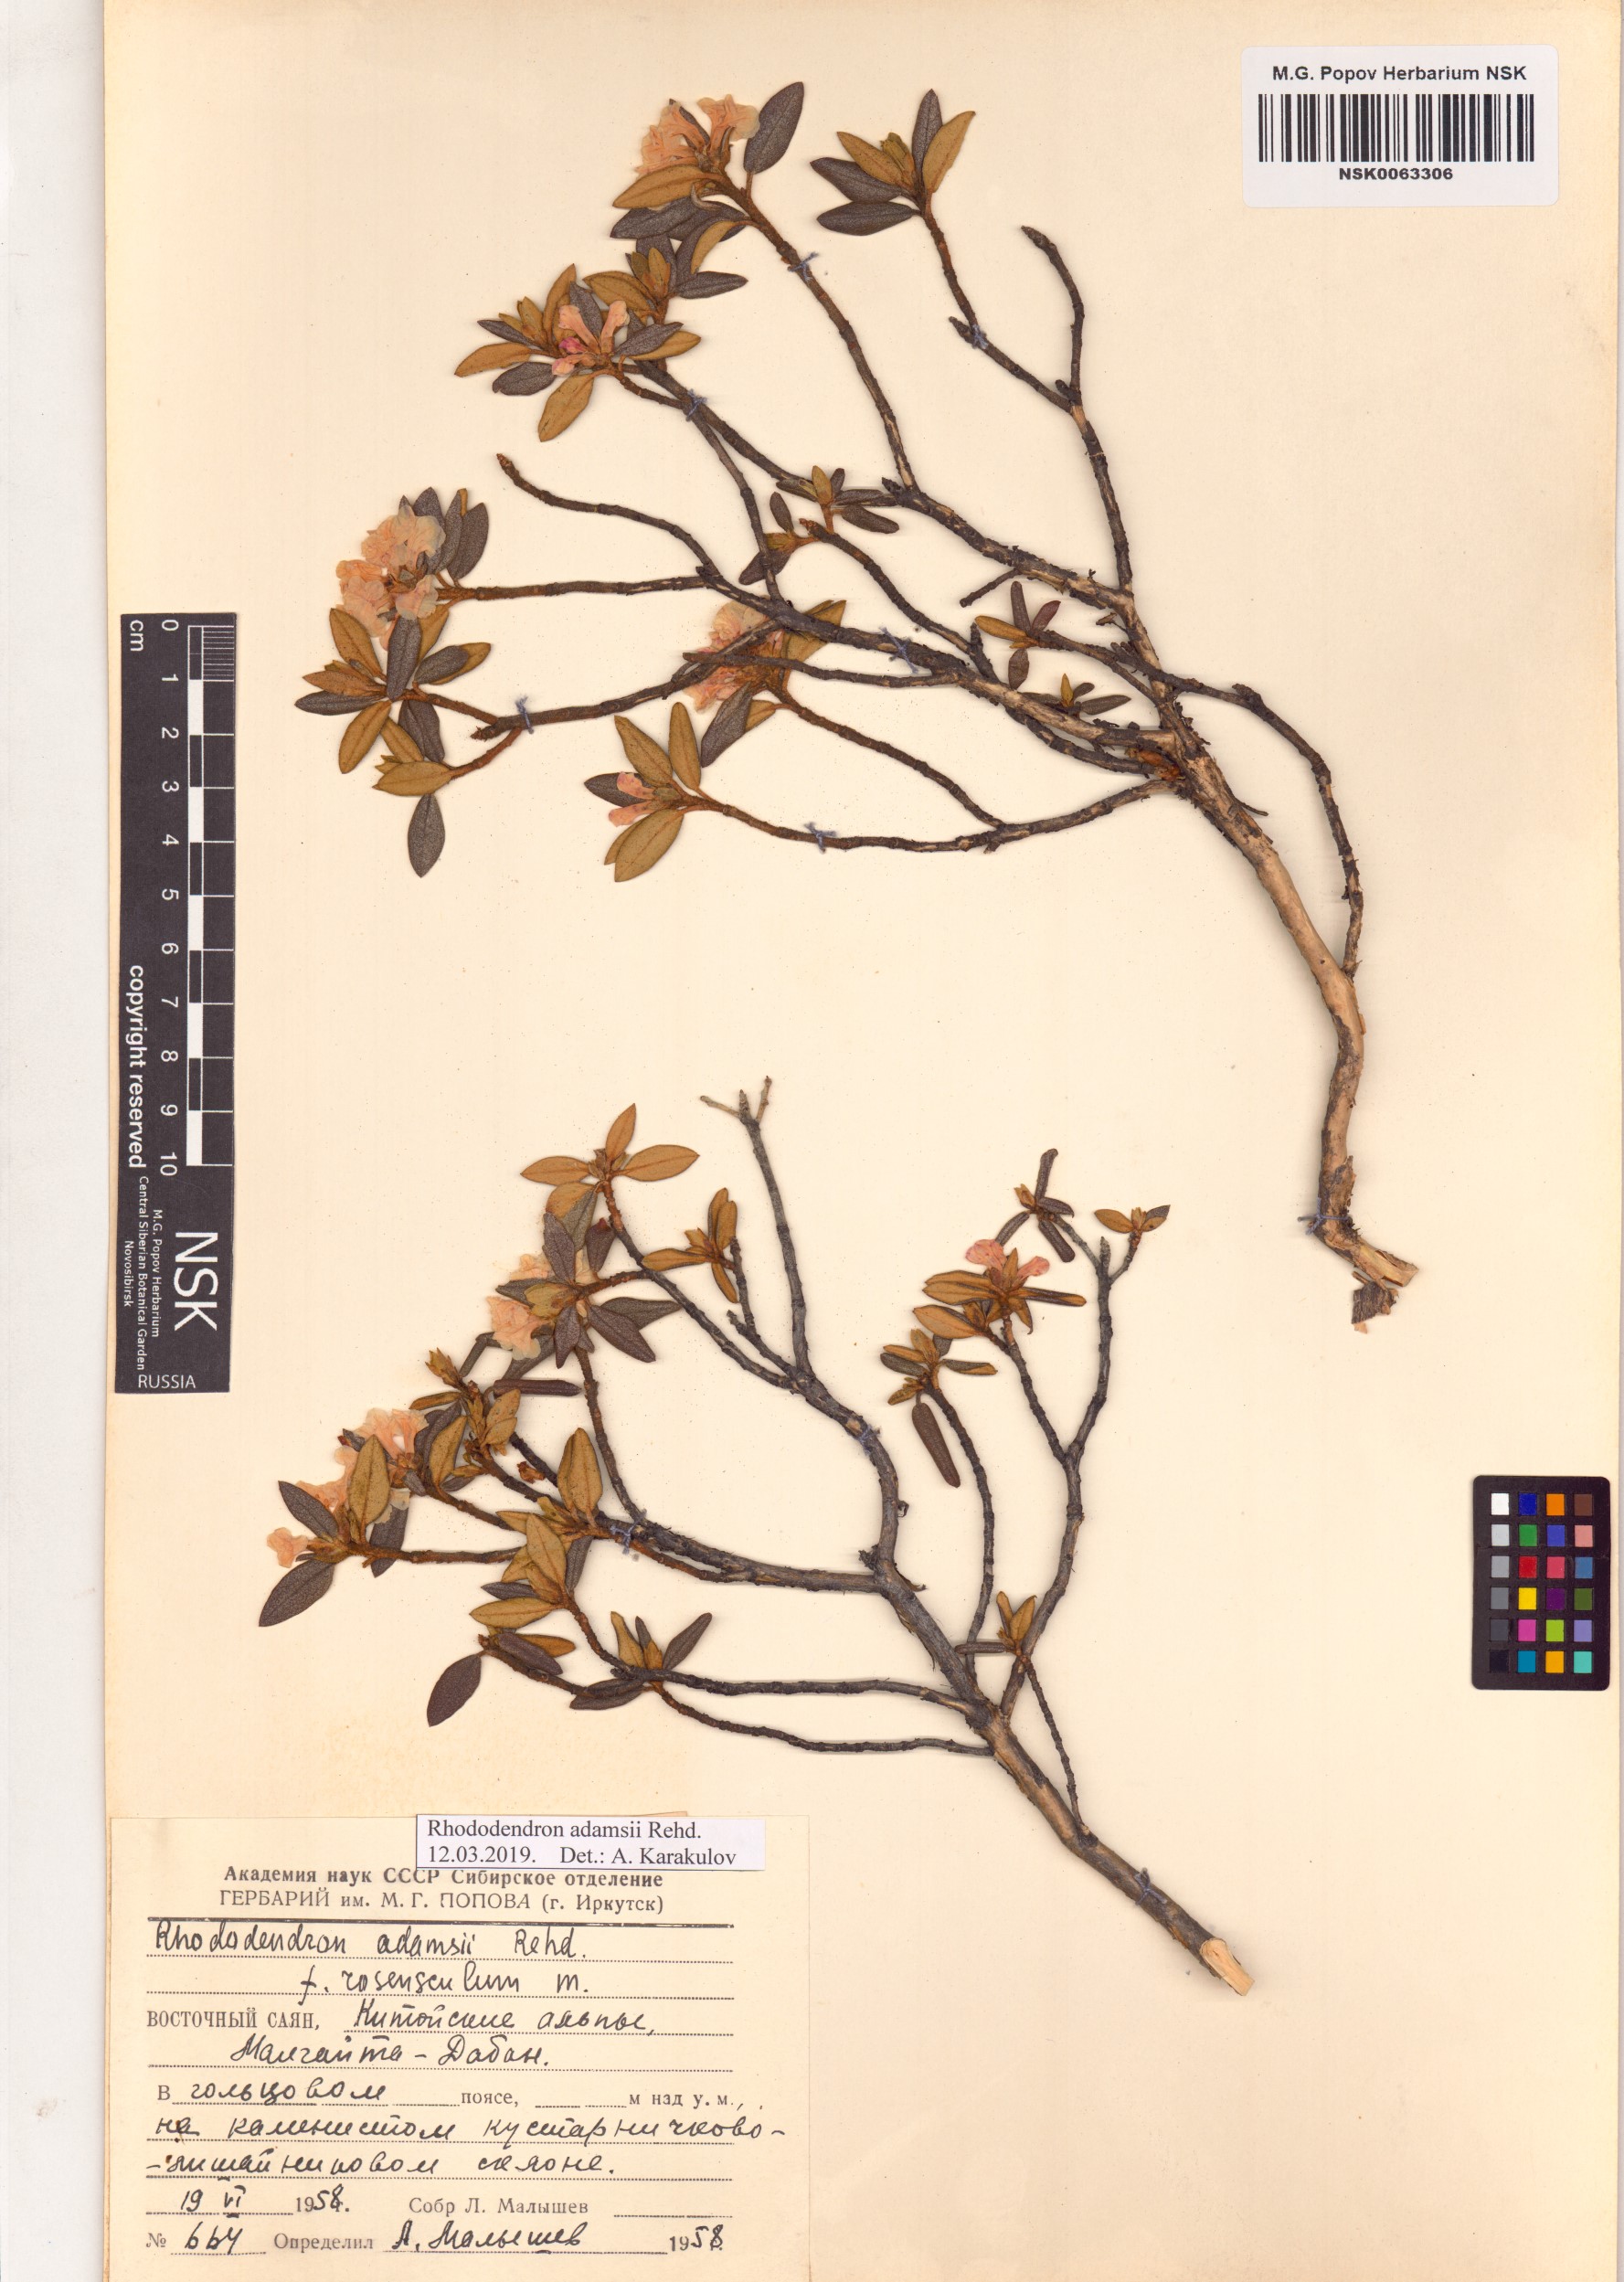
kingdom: Plantae
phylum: Tracheophyta
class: Magnoliopsida
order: Ericales
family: Ericaceae
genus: Rhododendron
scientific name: Rhododendron adamsii
